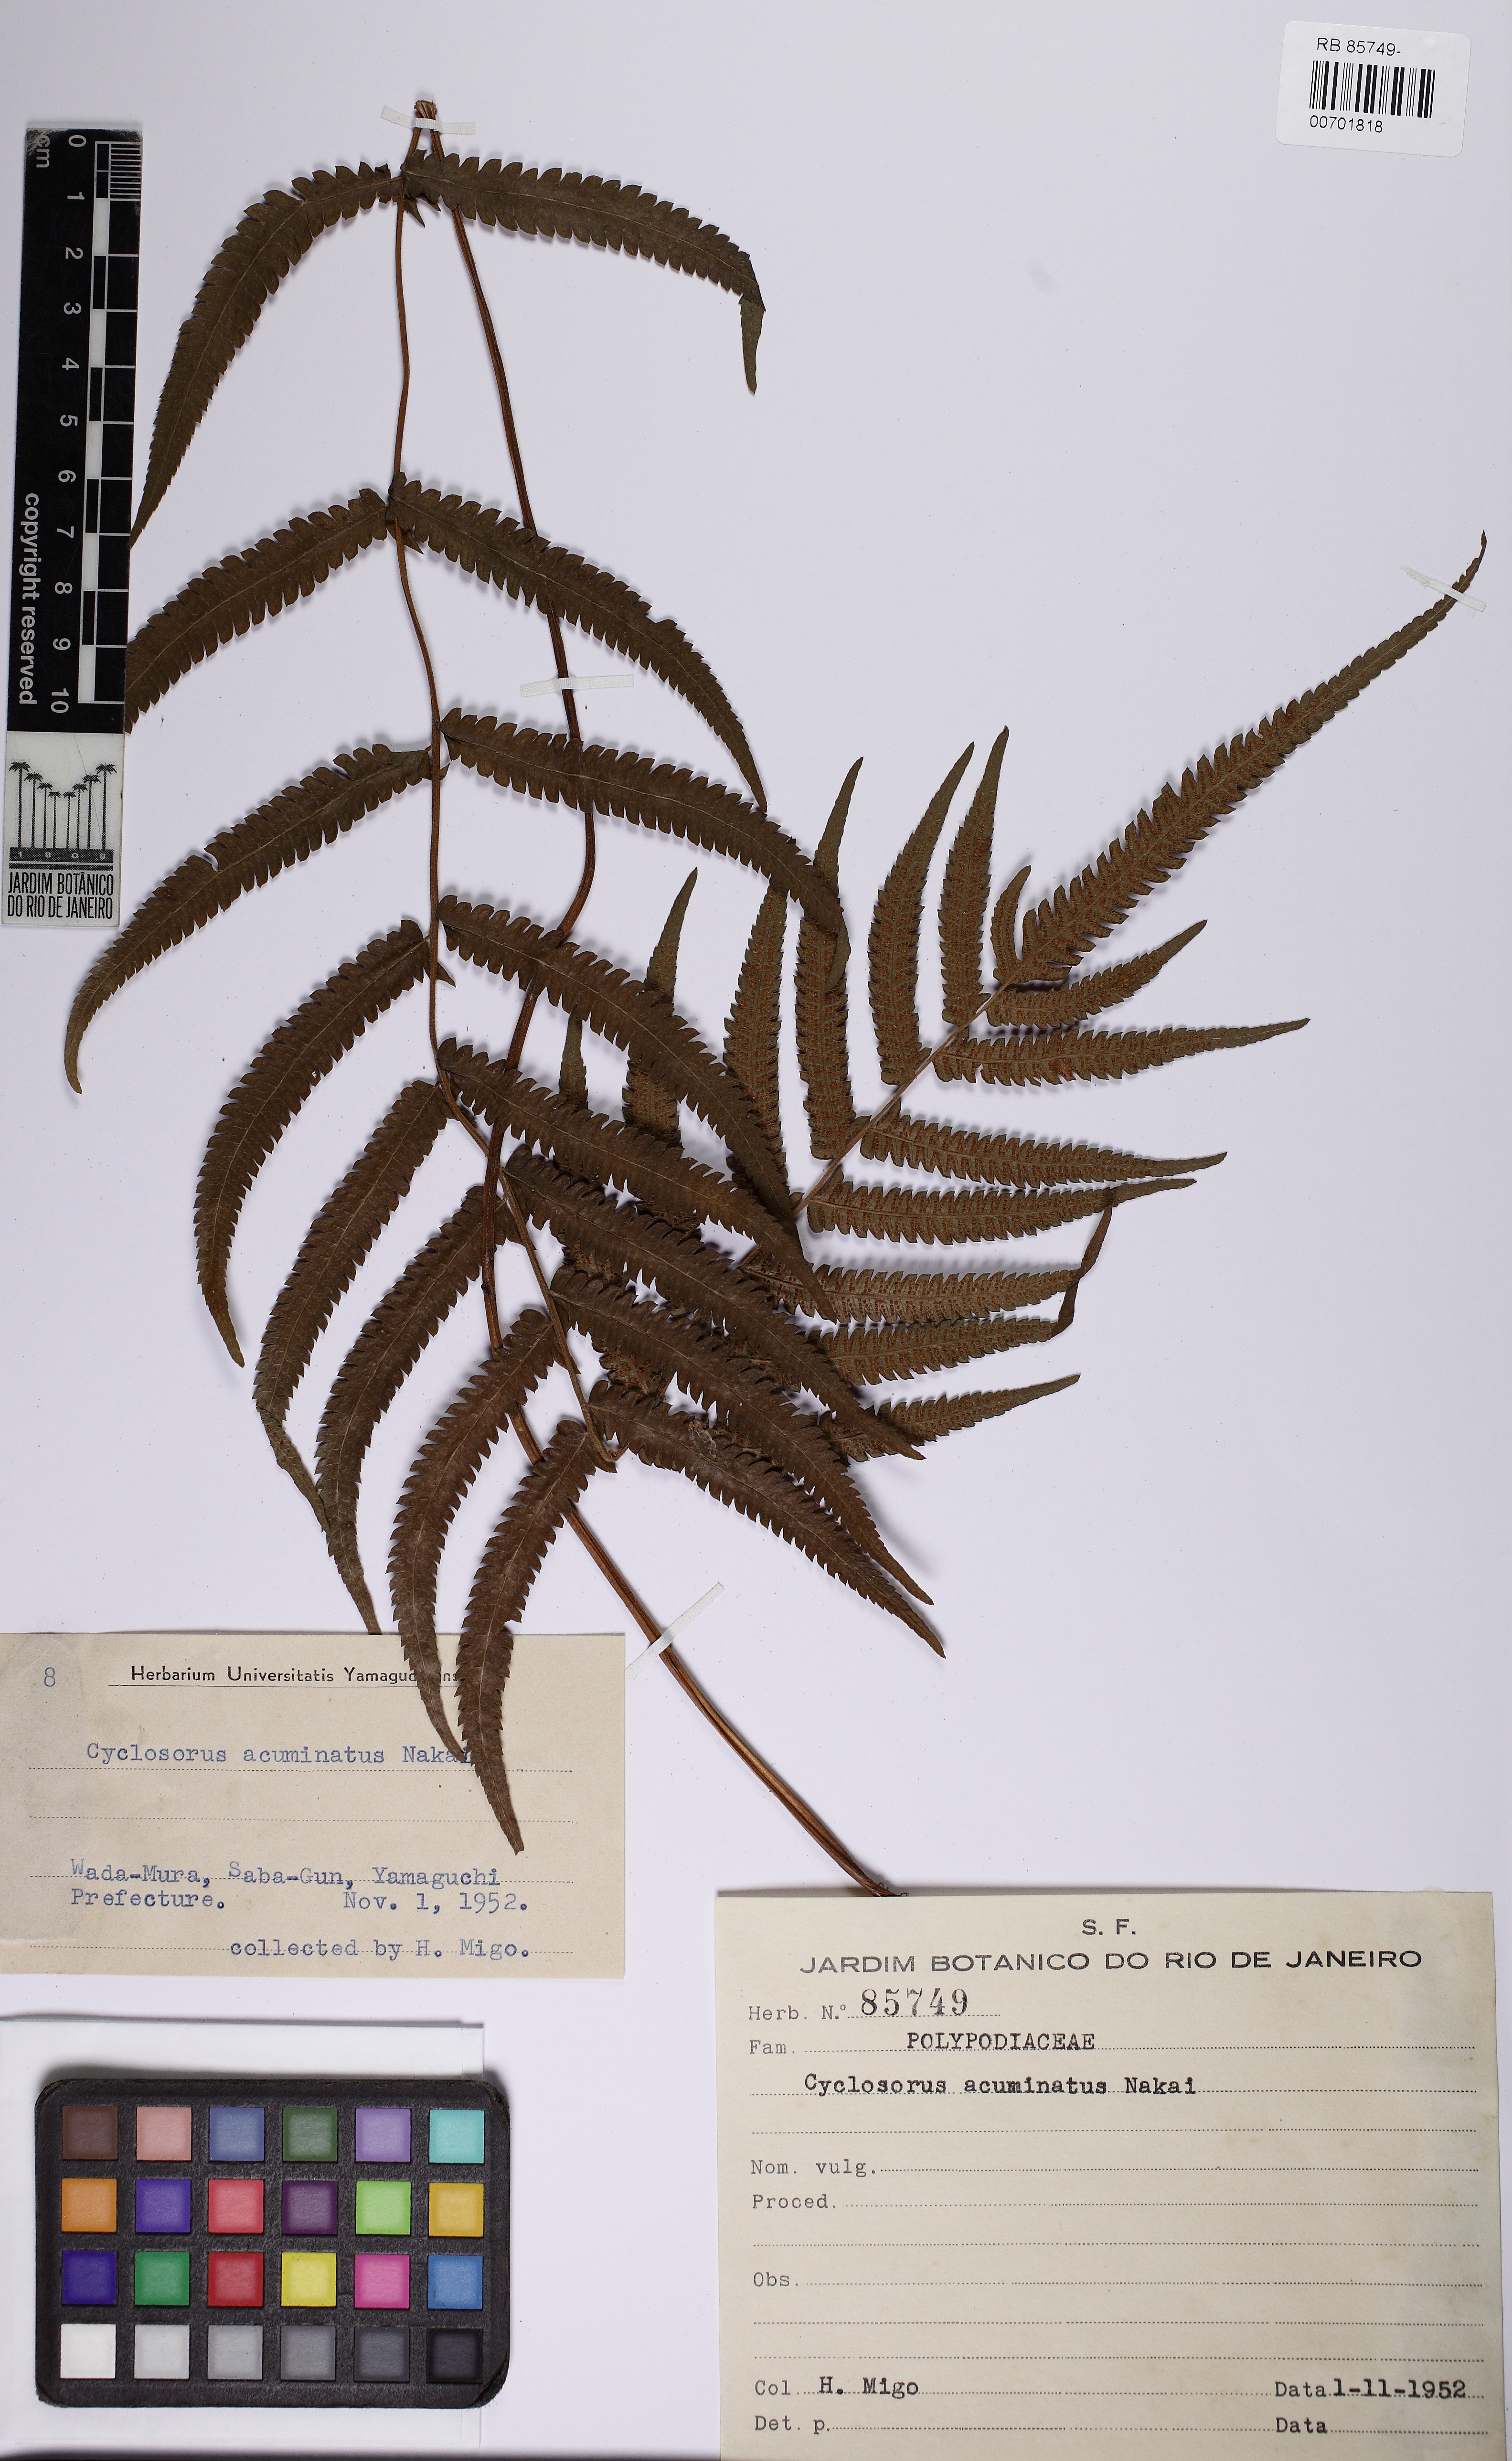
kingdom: Plantae
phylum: Tracheophyta
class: Polypodiopsida
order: Polypodiales
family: Thelypteridaceae
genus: Christella
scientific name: Christella acuminata
